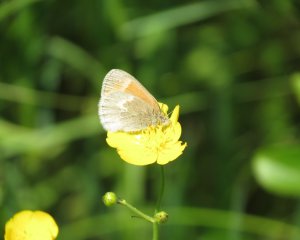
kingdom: Animalia
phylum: Arthropoda
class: Insecta
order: Lepidoptera
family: Nymphalidae
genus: Coenonympha
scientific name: Coenonympha tullia
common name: Large Heath
